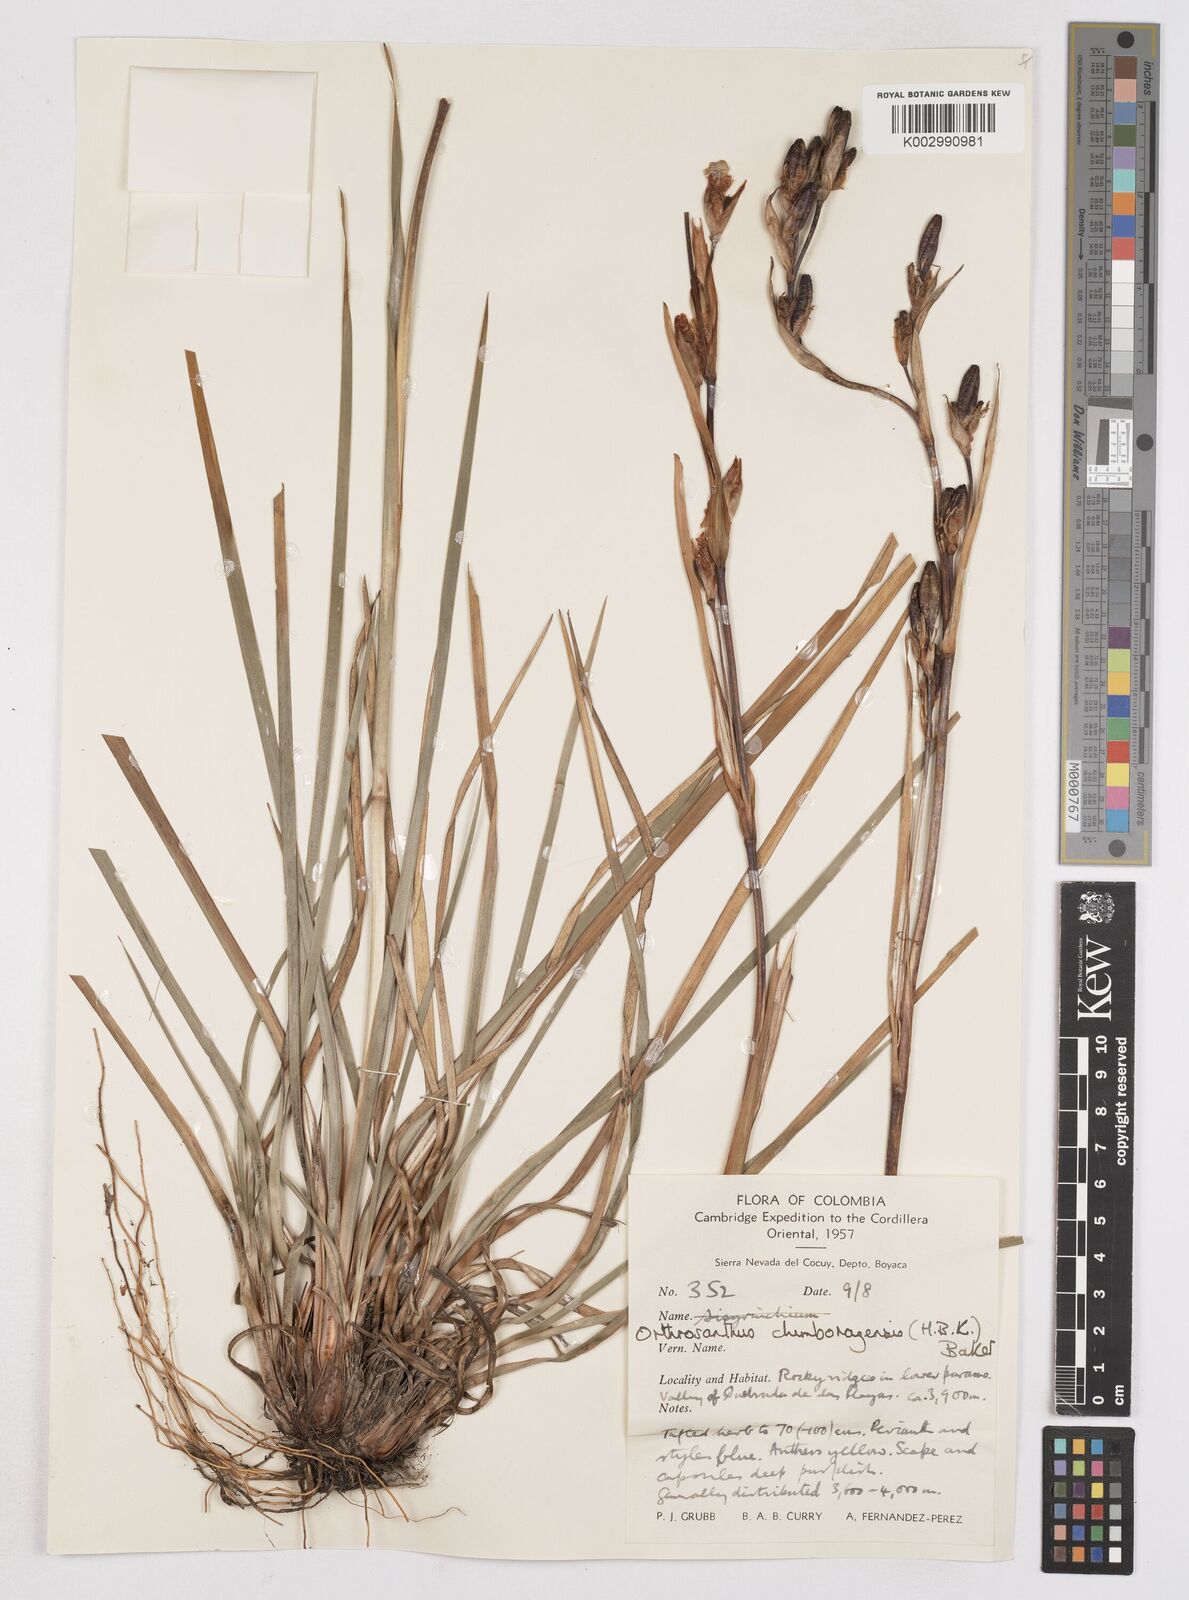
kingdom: Plantae
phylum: Tracheophyta
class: Liliopsida
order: Asparagales
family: Iridaceae
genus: Orthrosanthus
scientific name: Orthrosanthus chimboracensis
